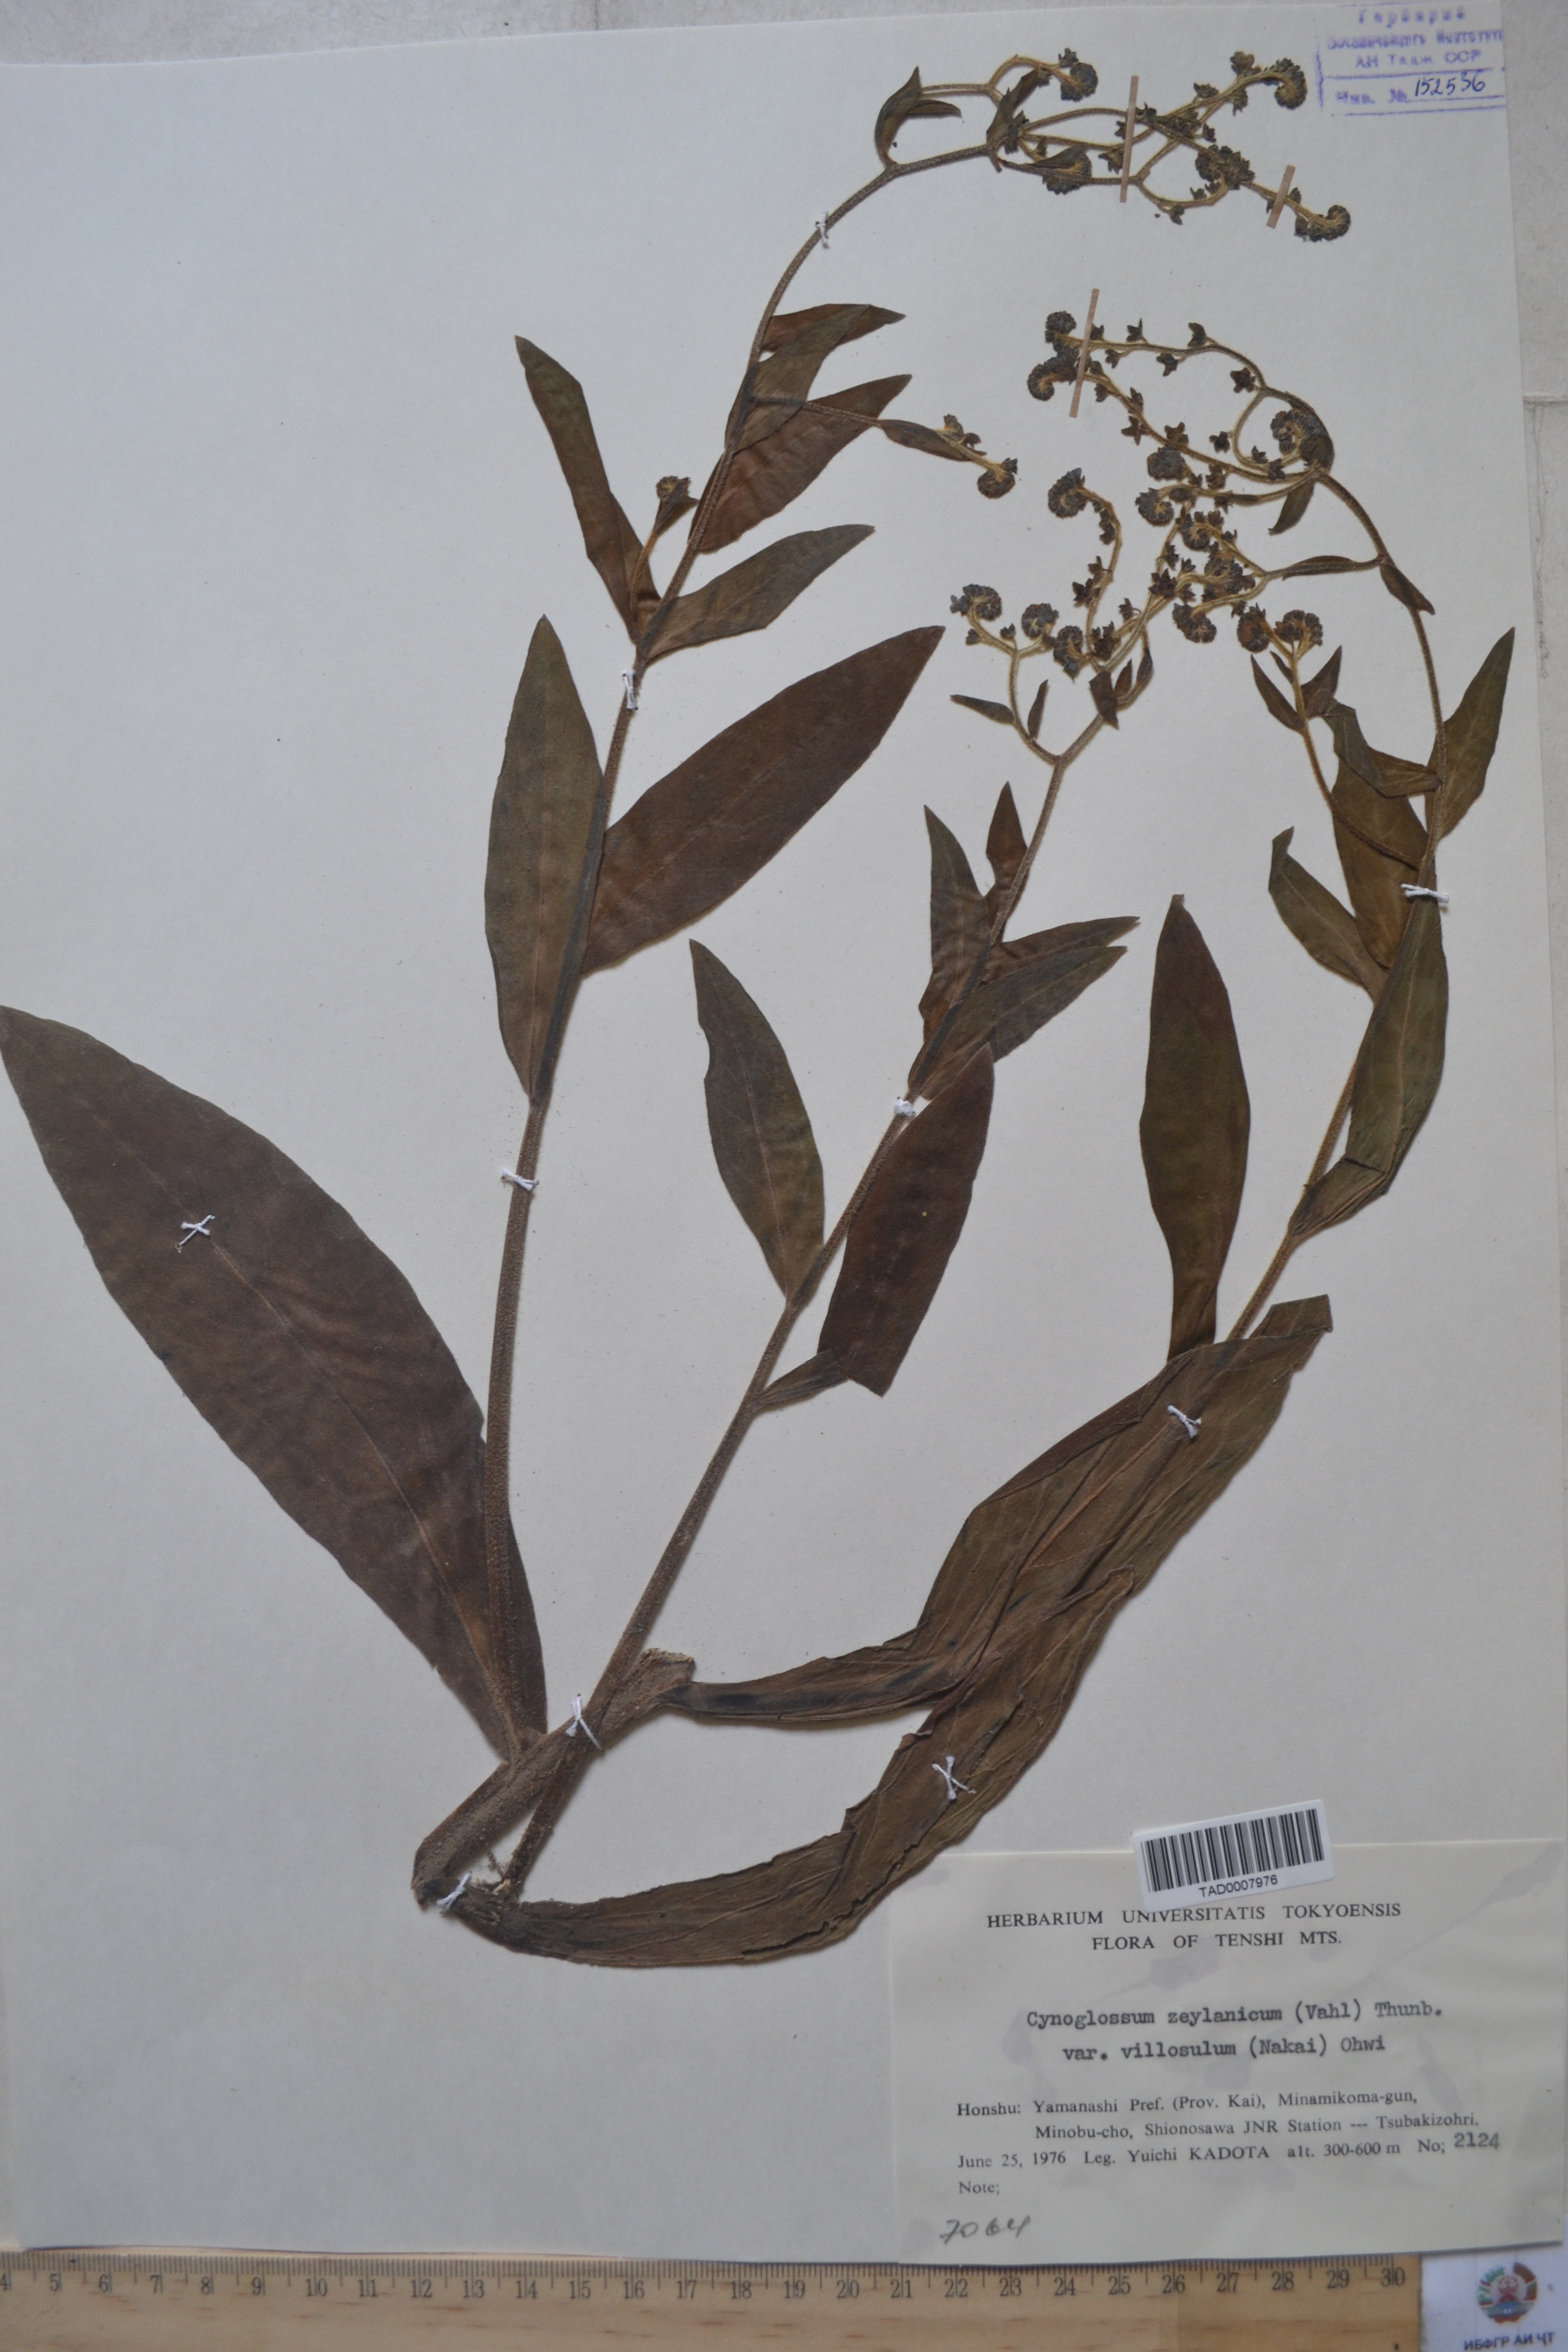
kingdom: Plantae
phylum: Tracheophyta
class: Magnoliopsida
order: Boraginales
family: Boraginaceae
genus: Cynoglossum
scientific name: Cynoglossum
